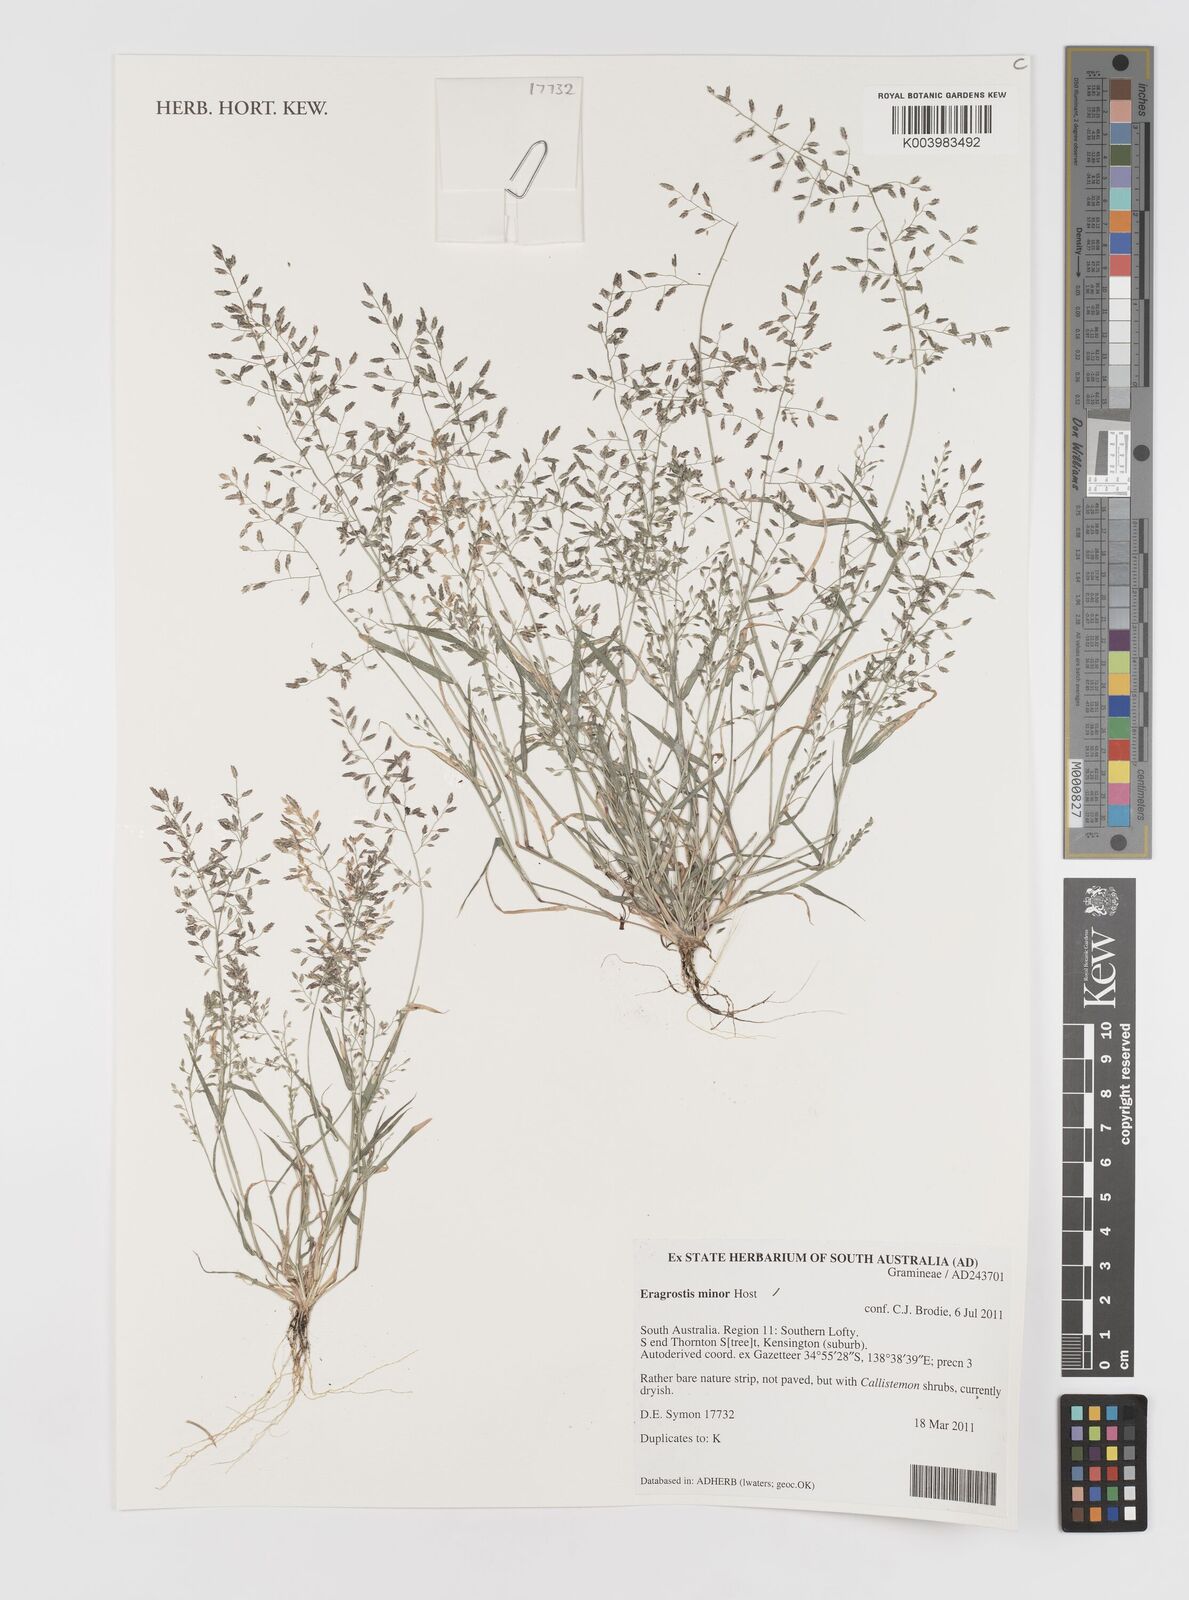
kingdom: Plantae
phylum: Tracheophyta
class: Liliopsida
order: Poales
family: Poaceae
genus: Eragrostis
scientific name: Eragrostis minor
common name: Small love-grass
